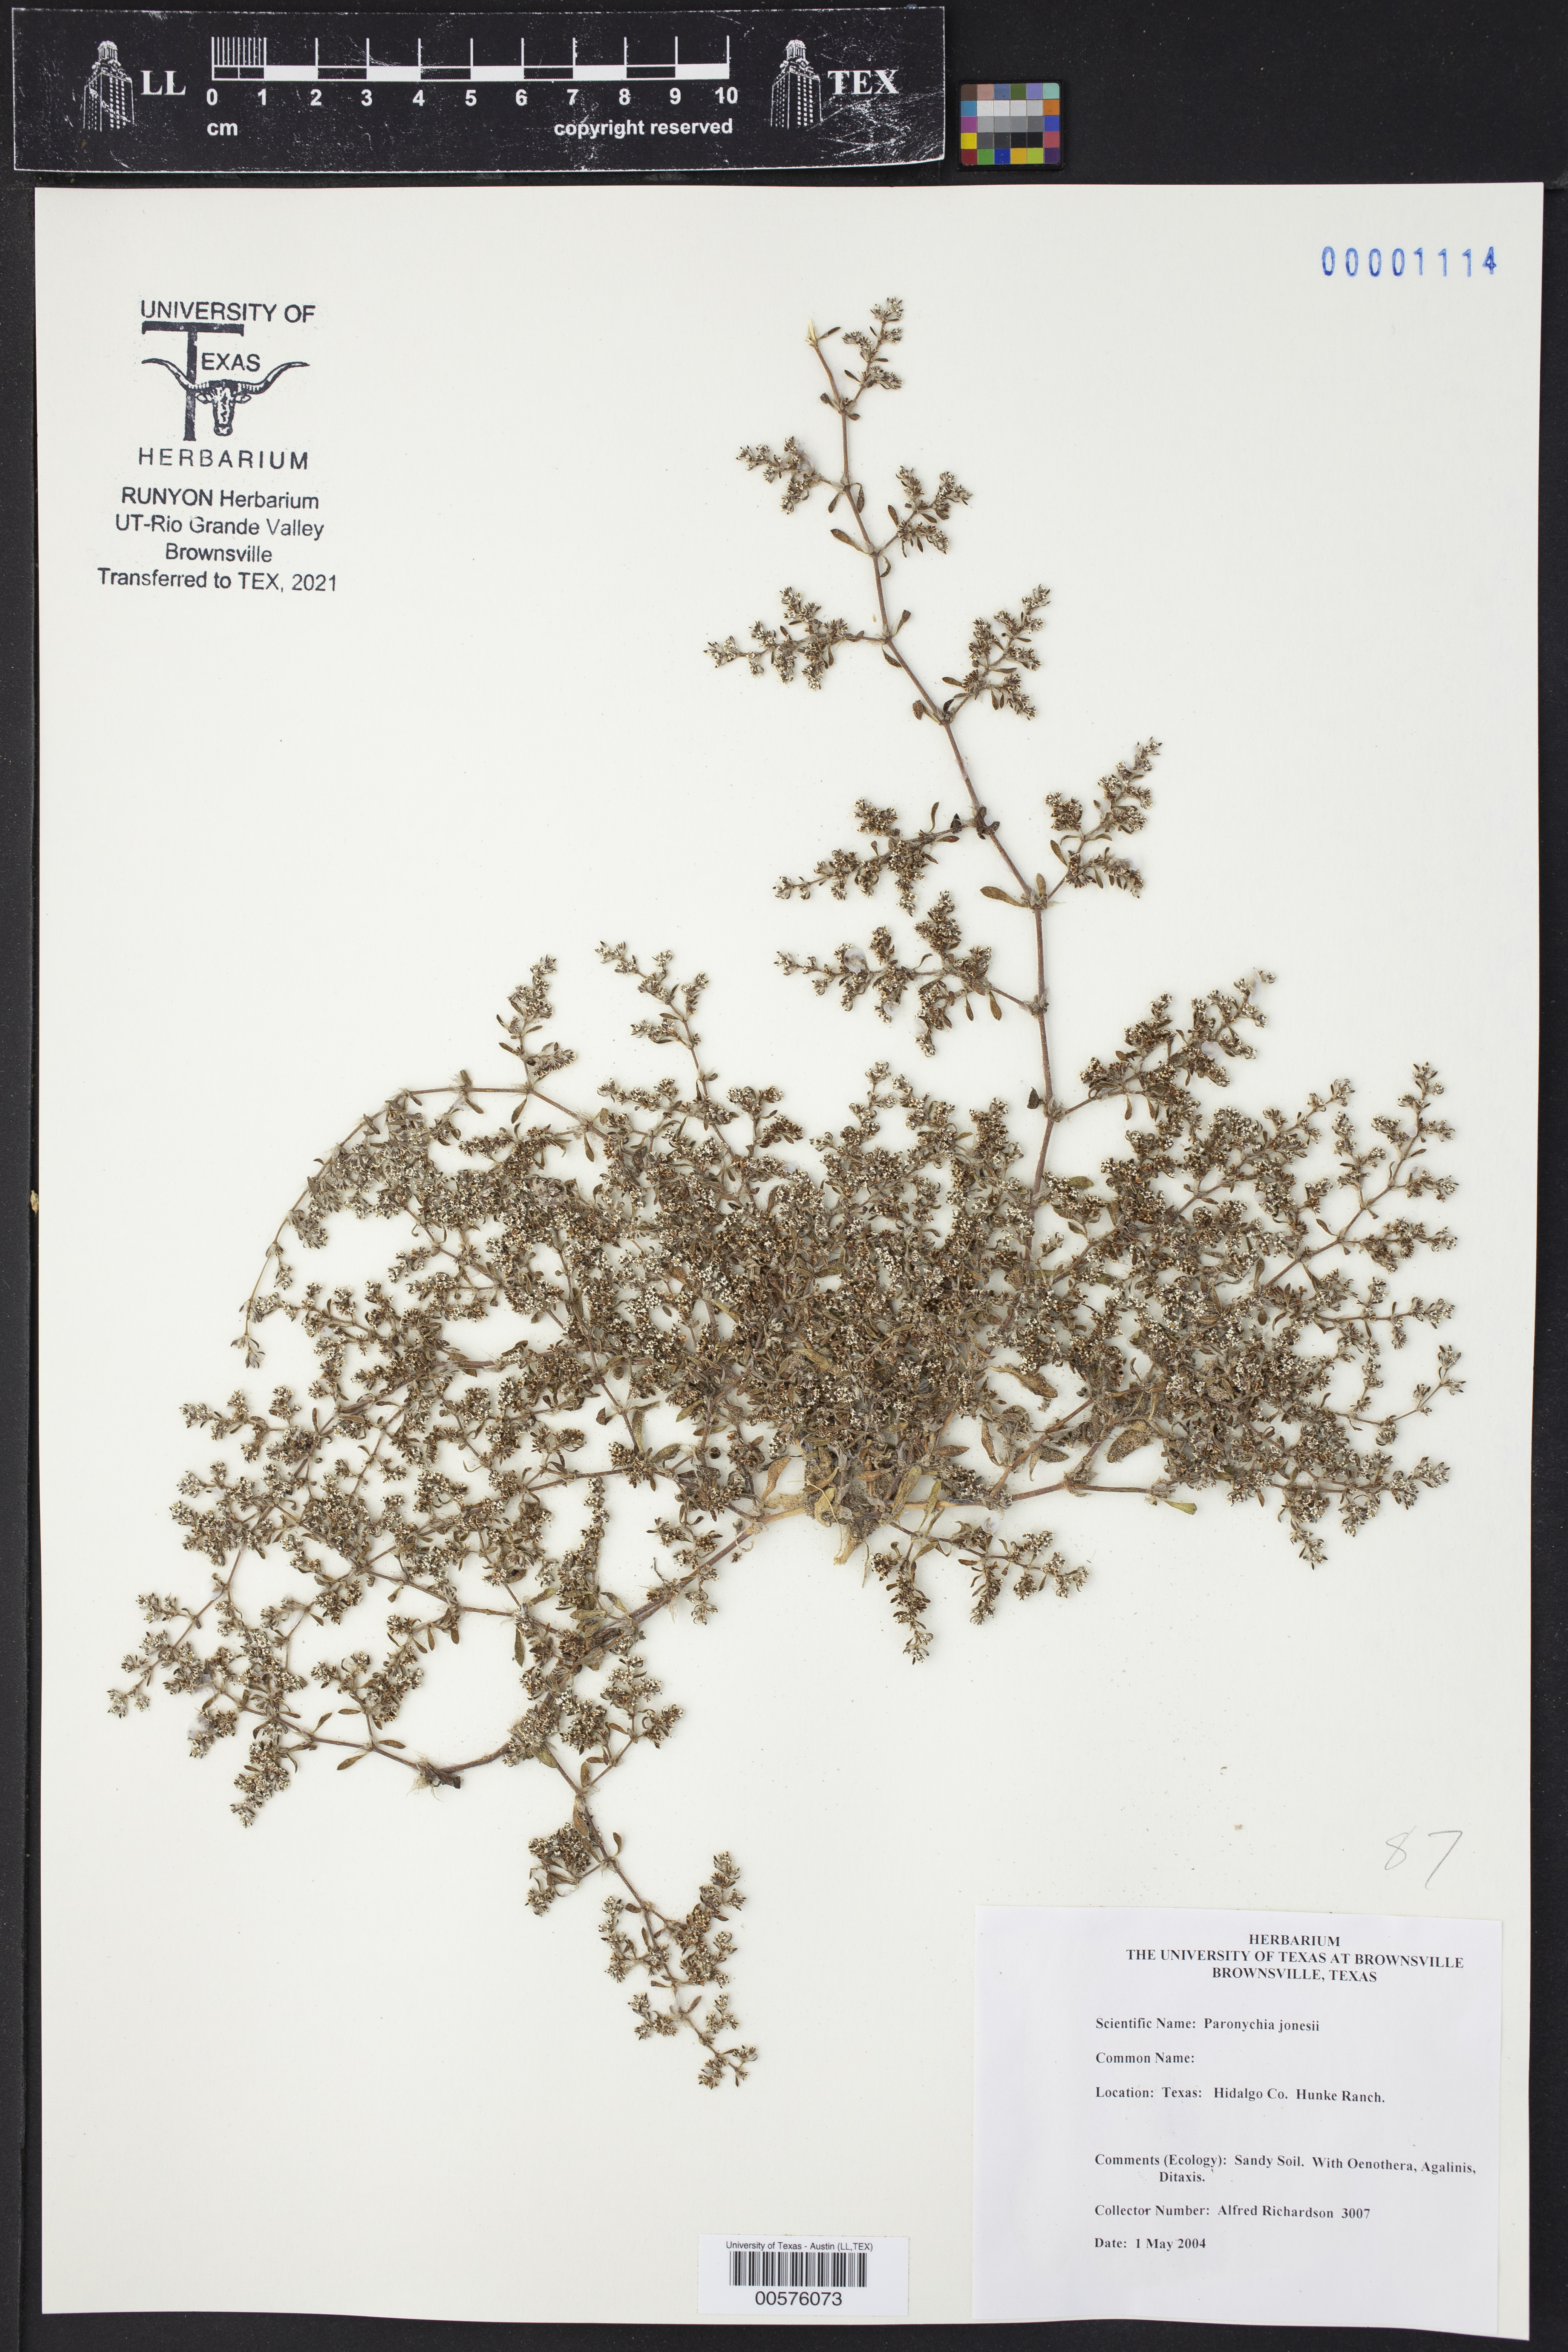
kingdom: Plantae
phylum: Tracheophyta
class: Magnoliopsida
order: Caryophyllales
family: Caryophyllaceae
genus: Paronychia
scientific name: Paronychia jonesii
